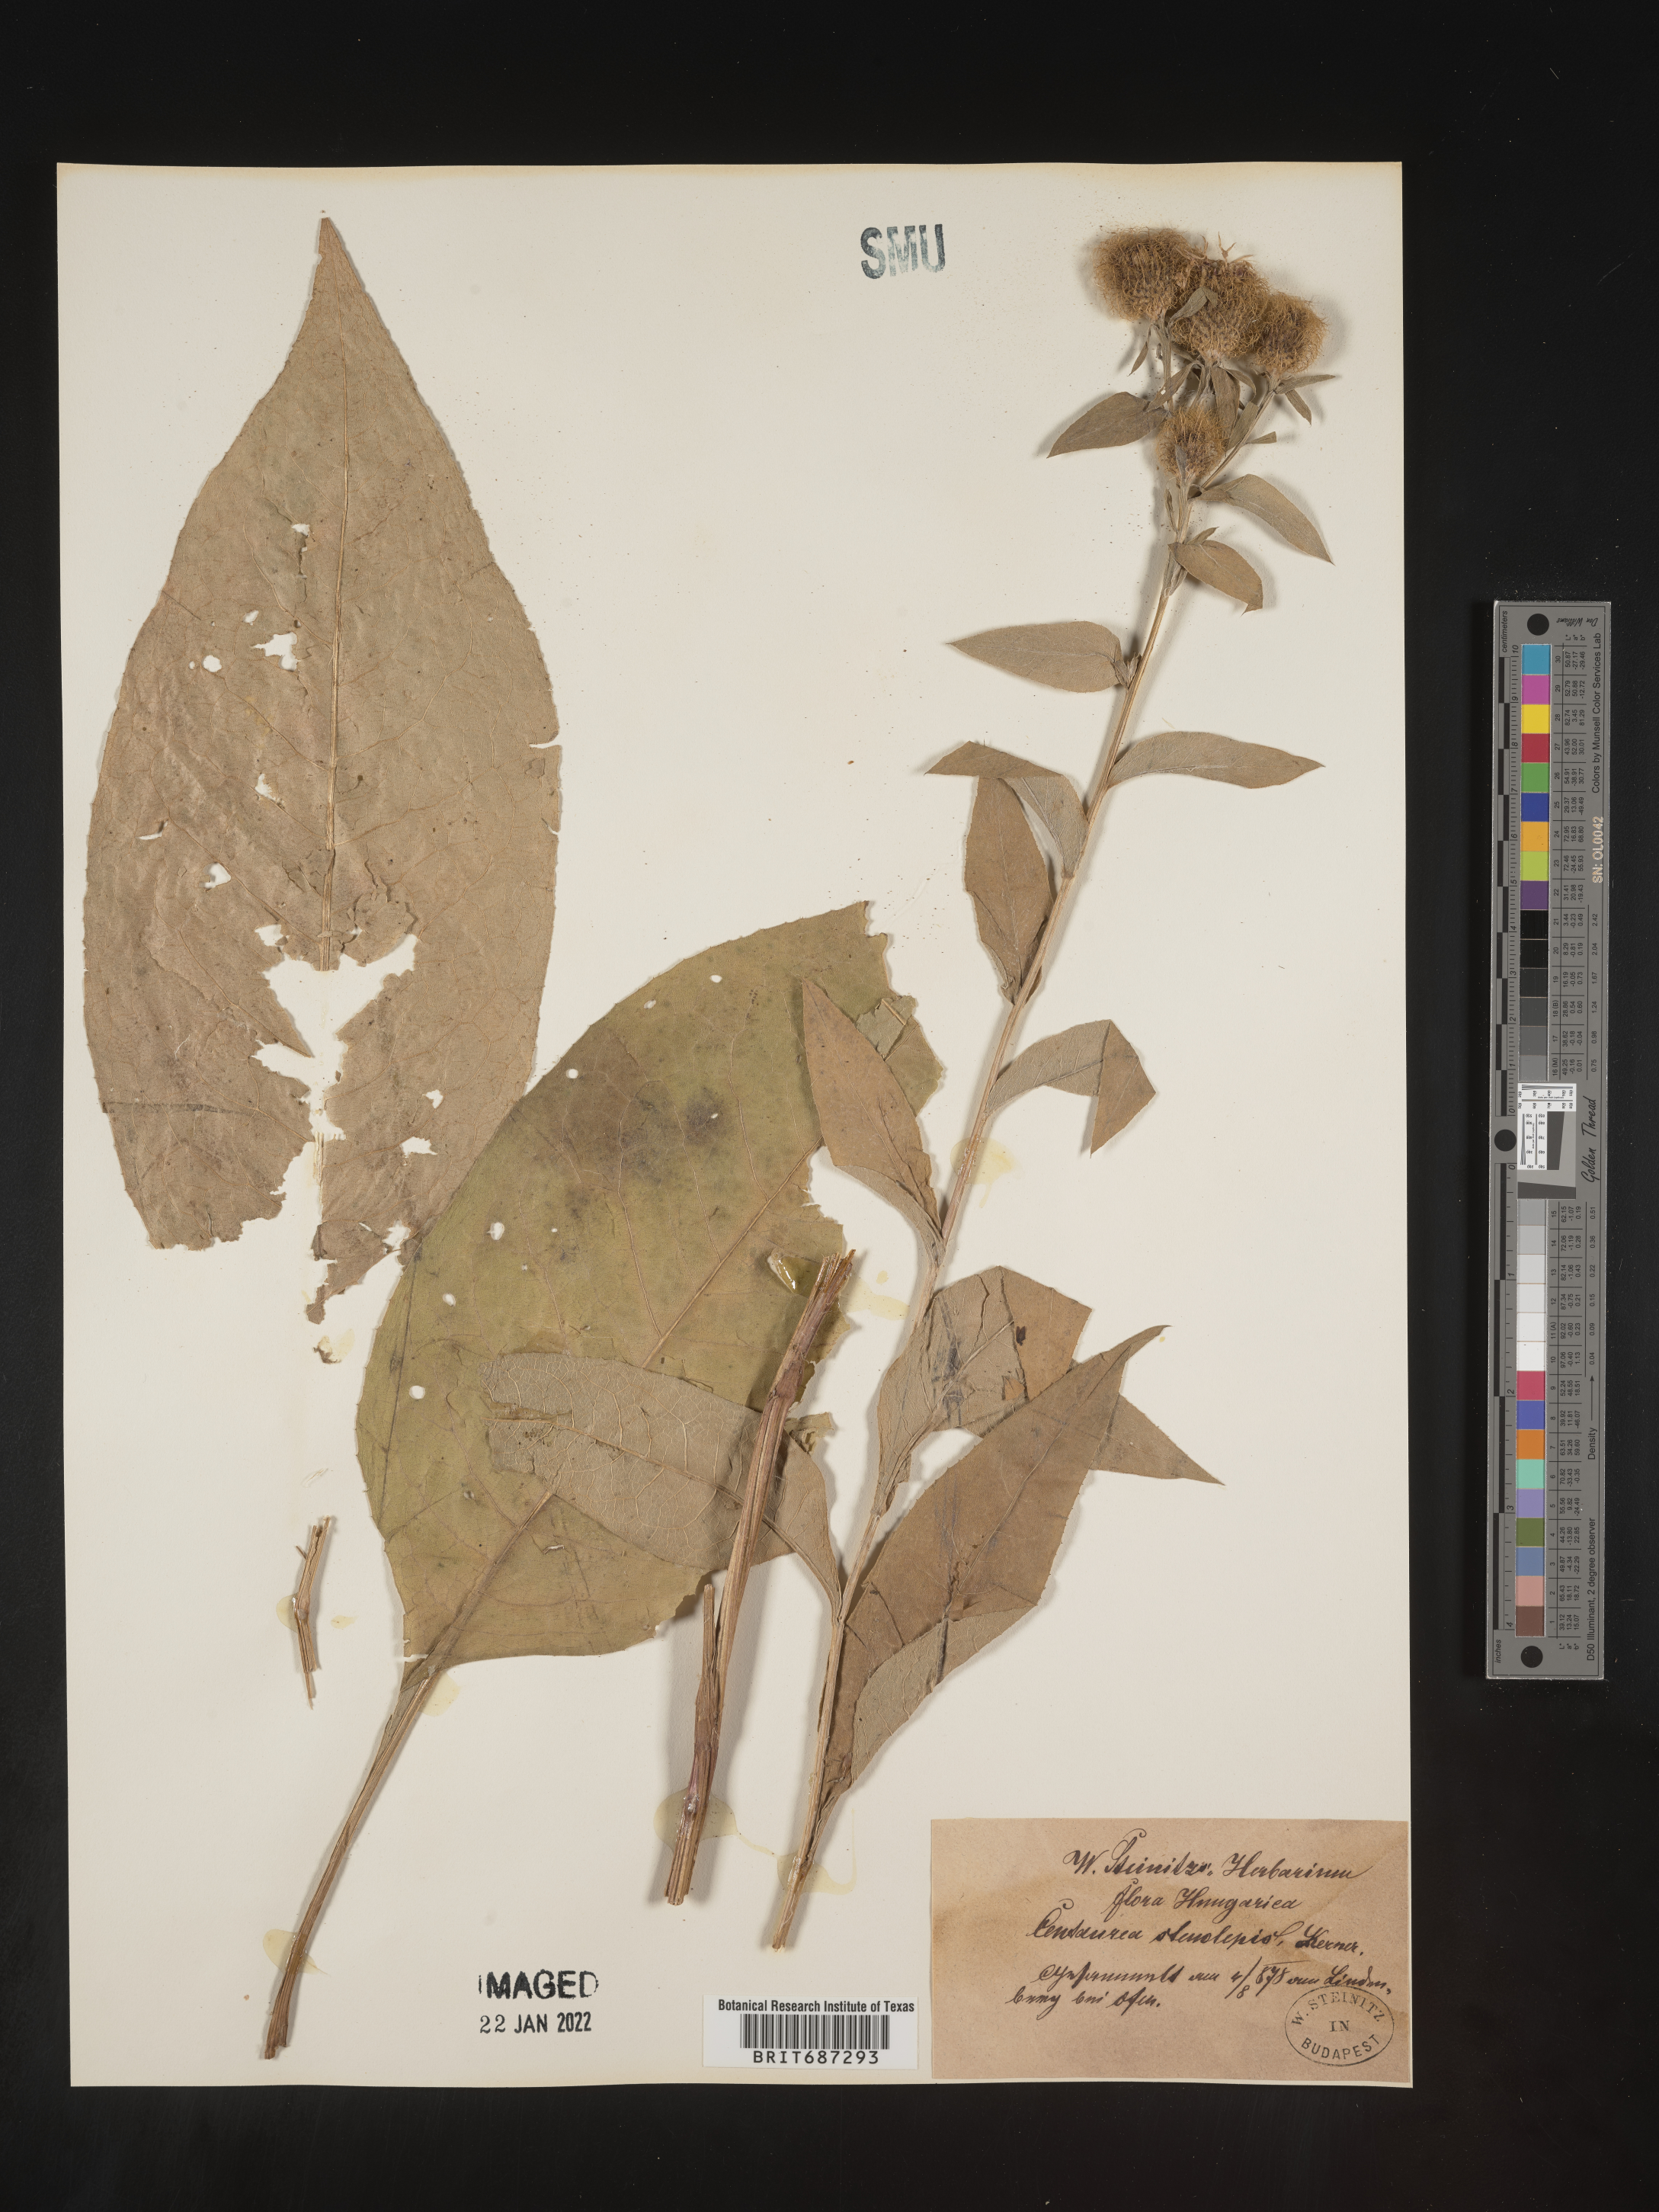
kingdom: Plantae
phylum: Tracheophyta
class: Magnoliopsida
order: Asterales
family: Asteraceae
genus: Centaurea
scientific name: Centaurea
